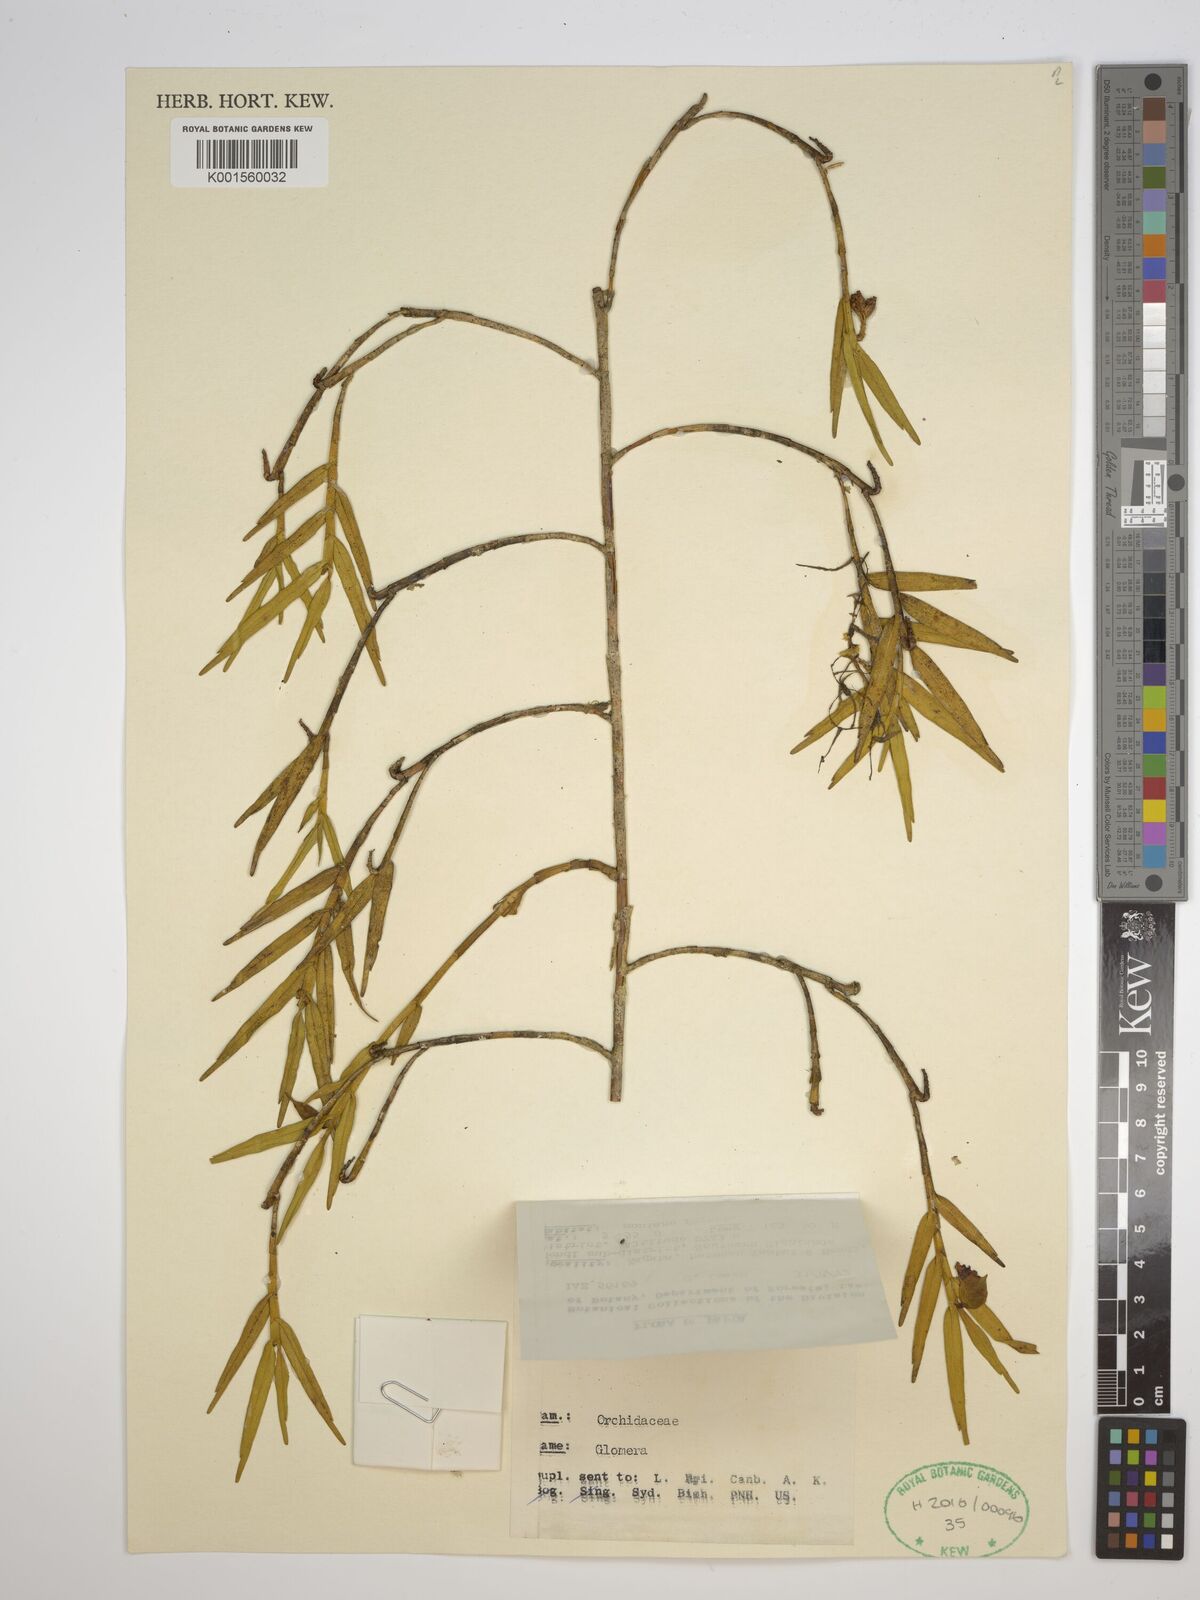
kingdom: Plantae
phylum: Tracheophyta
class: Liliopsida
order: Asparagales
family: Orchidaceae
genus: Glomera
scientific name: Glomera
